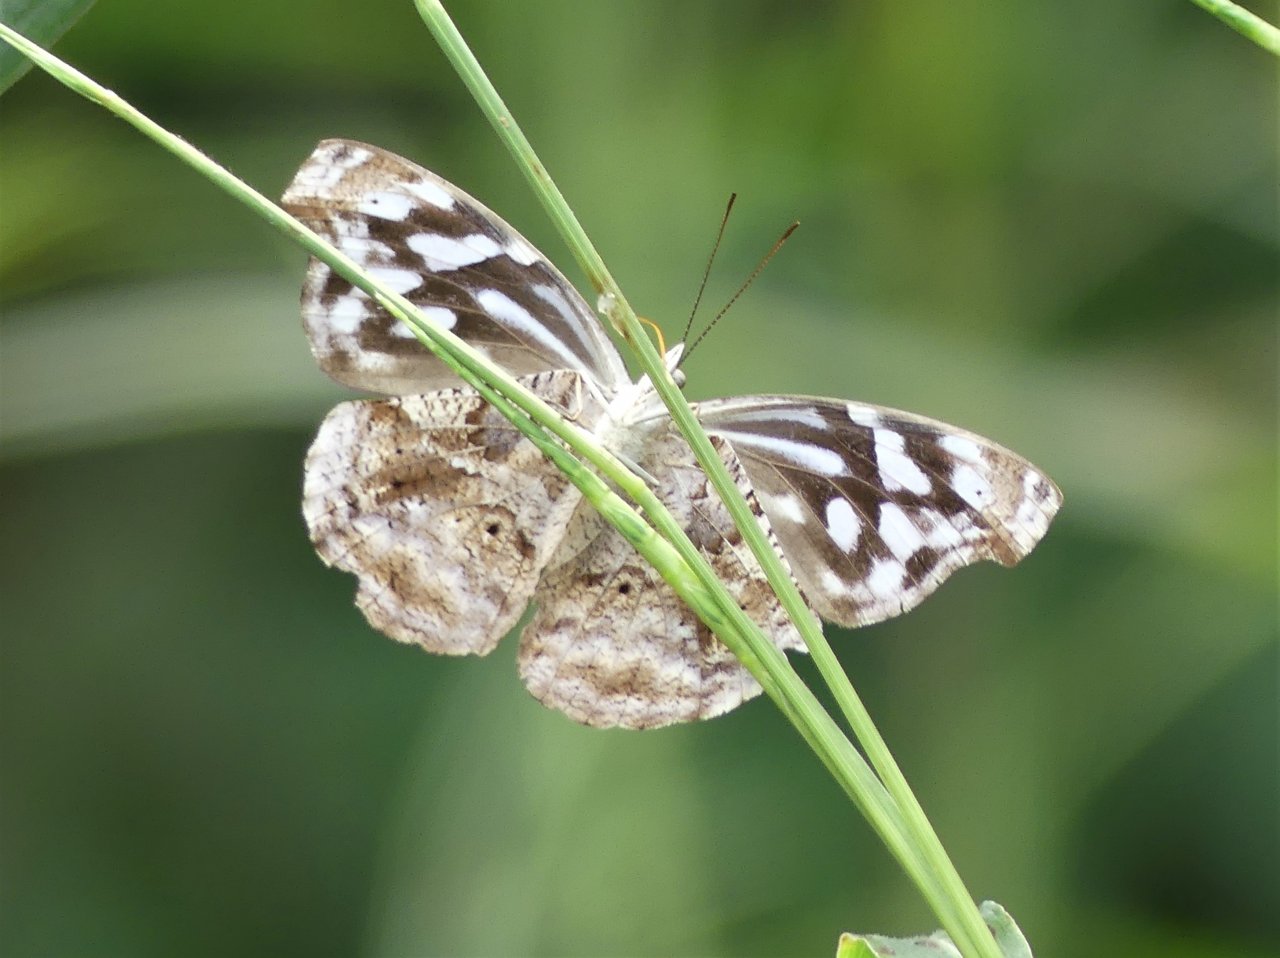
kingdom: Animalia
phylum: Arthropoda
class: Insecta
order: Lepidoptera
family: Nymphalidae
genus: Myscelia
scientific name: Myscelia cyaniris
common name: Whitened Bluewing
